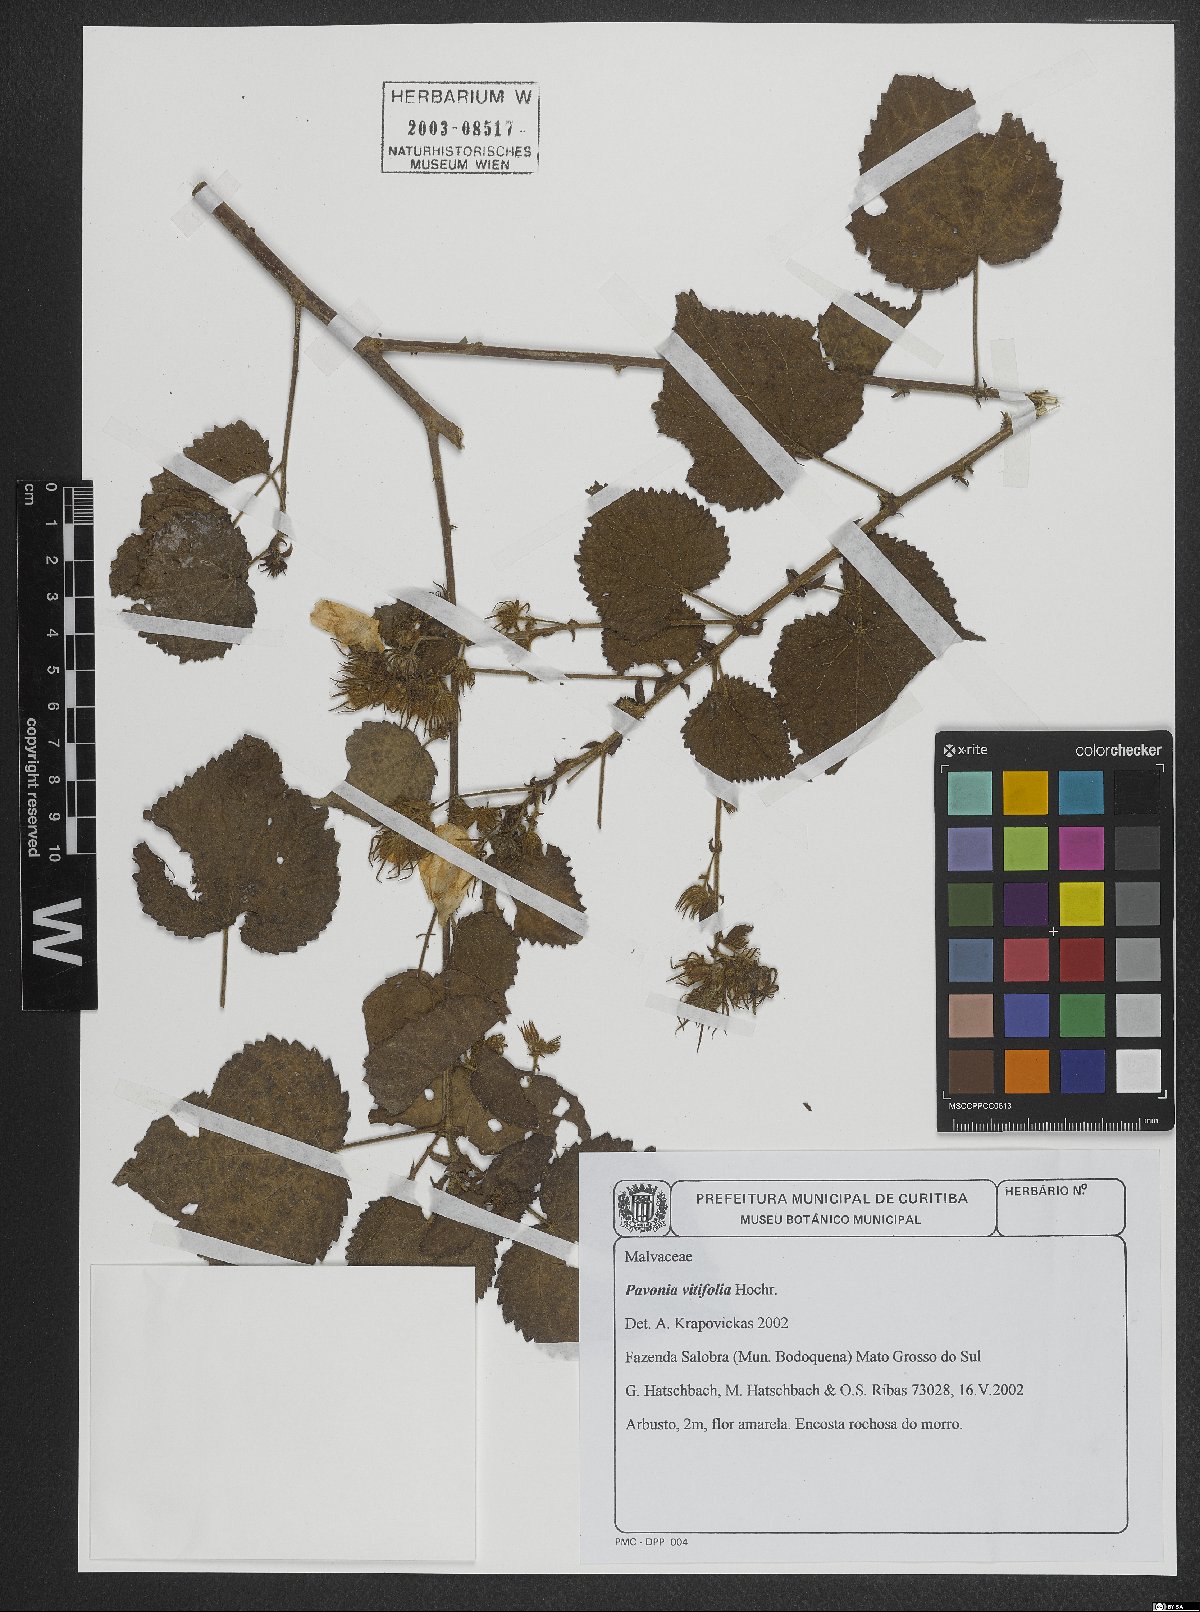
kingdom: Plantae
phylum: Tracheophyta
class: Magnoliopsida
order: Malvales
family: Malvaceae
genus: Pavonia
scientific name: Pavonia vitifolia
